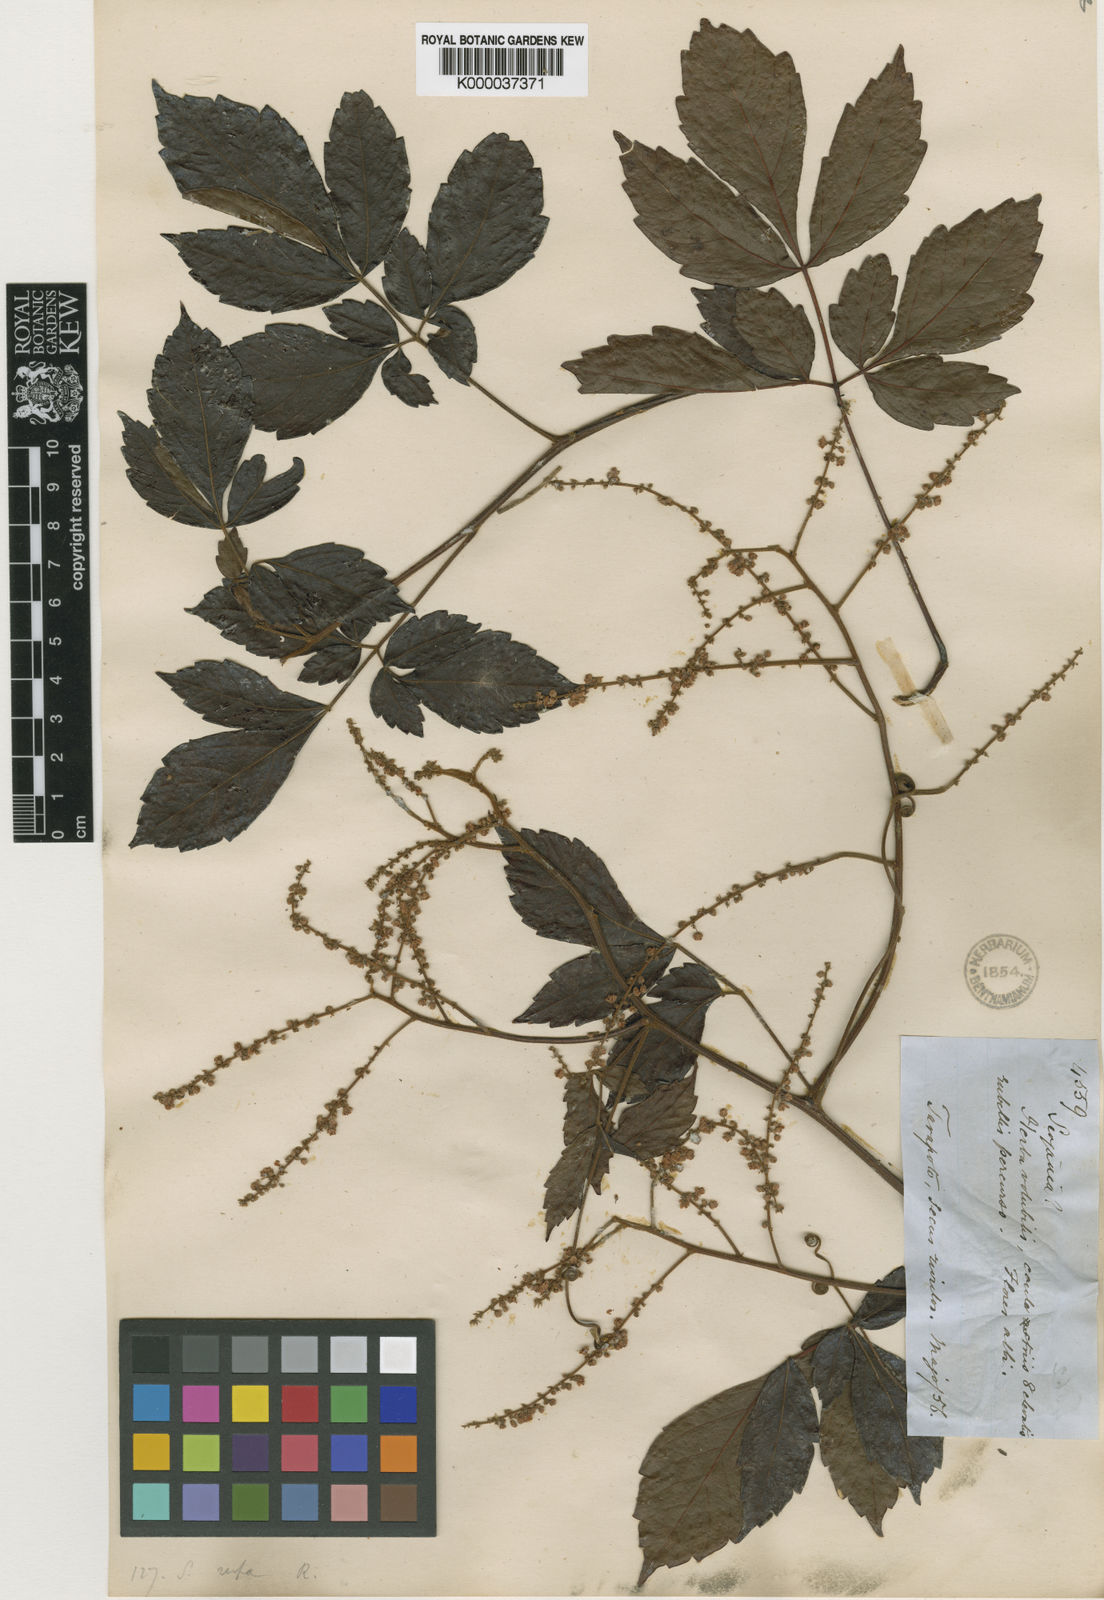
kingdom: Plantae
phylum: Tracheophyta
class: Magnoliopsida
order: Sapindales
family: Sapindaceae
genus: Serjania
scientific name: Serjania rufa
